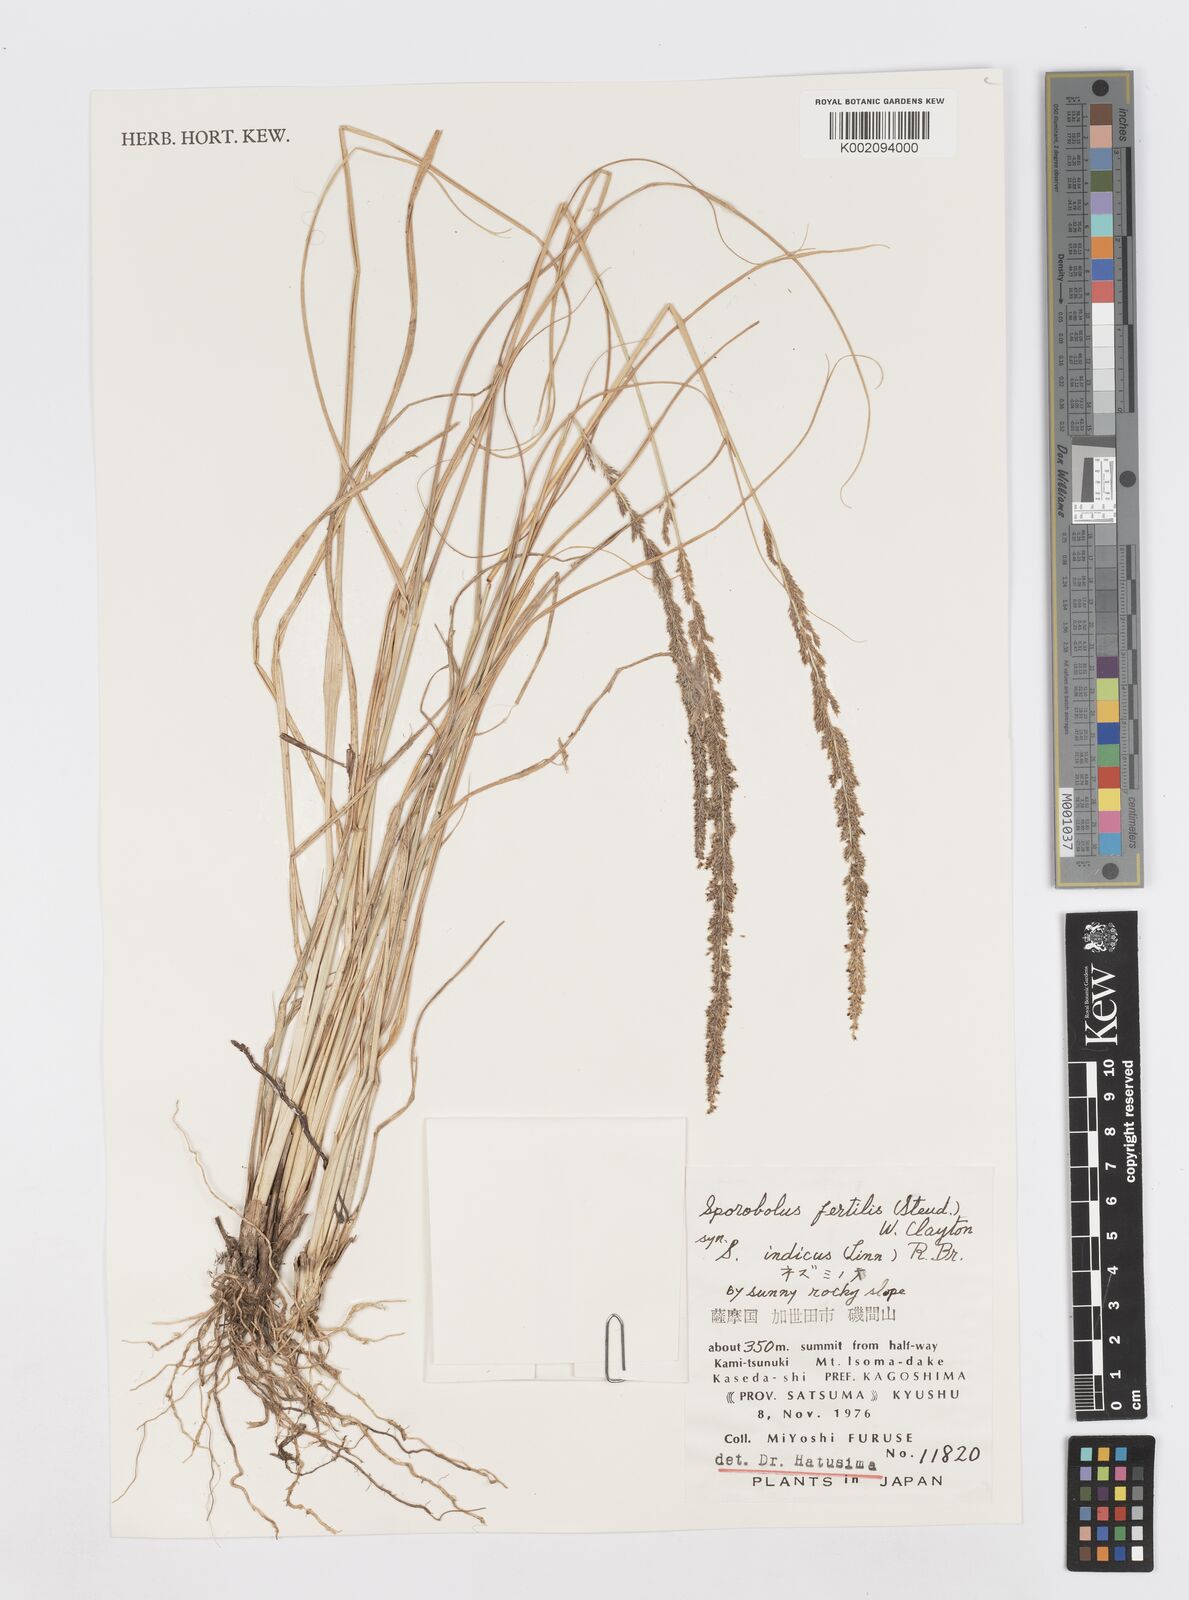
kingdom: Plantae
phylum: Tracheophyta
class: Liliopsida
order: Poales
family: Poaceae
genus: Sporobolus
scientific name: Sporobolus fertilis
